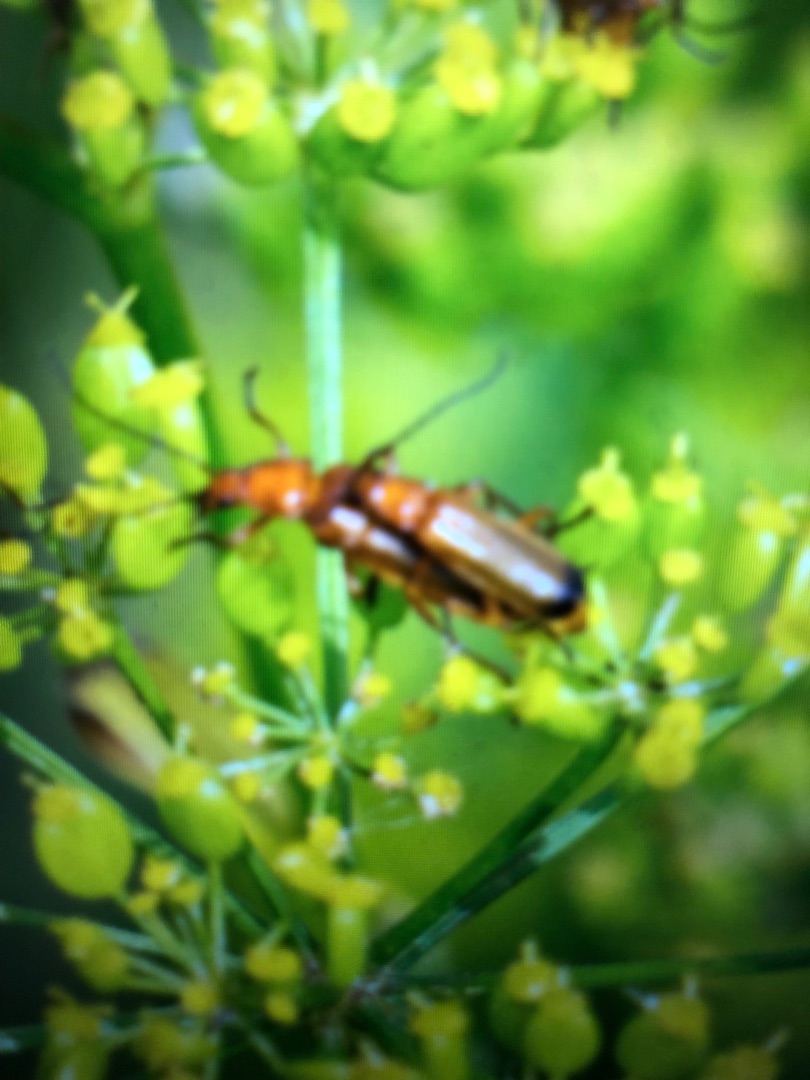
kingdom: Animalia
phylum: Arthropoda
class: Insecta
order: Coleoptera
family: Cantharidae
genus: Rhagonycha
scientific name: Rhagonycha fulva
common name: Præstebille
